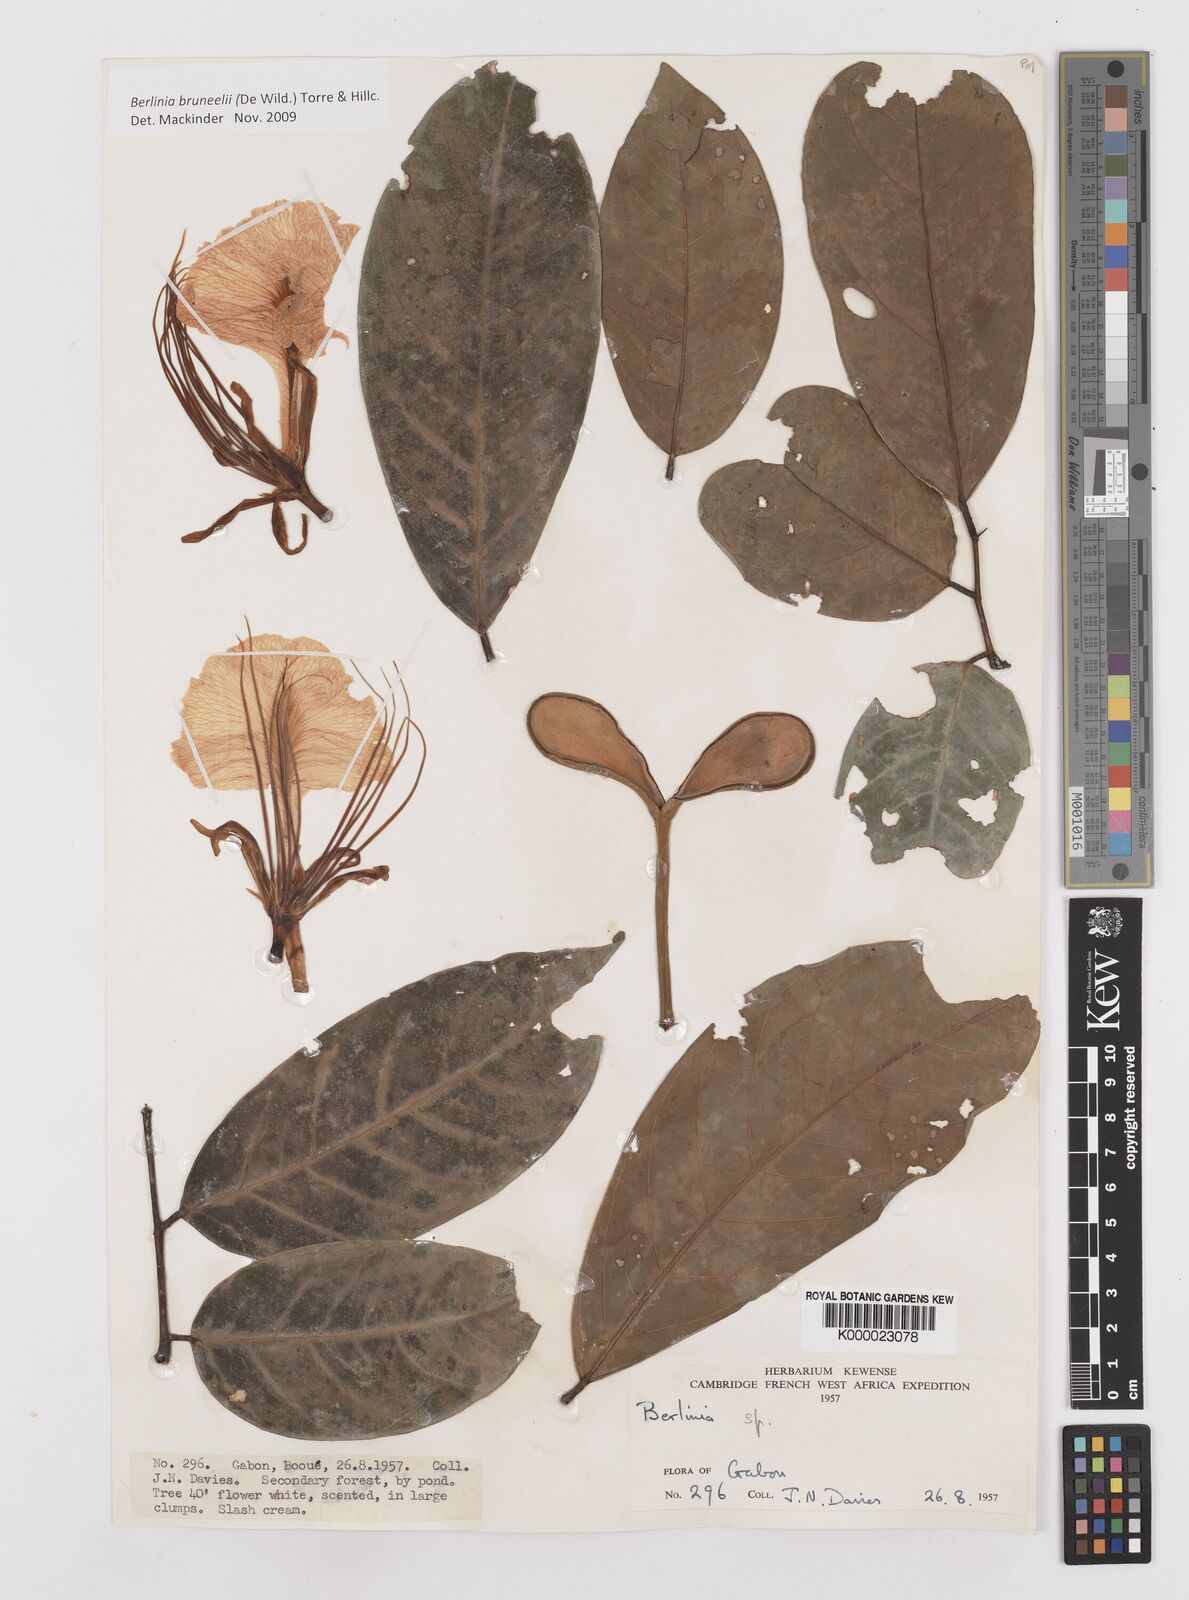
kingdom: Plantae
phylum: Tracheophyta
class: Magnoliopsida
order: Fabales
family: Fabaceae
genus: Berlinia
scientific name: Berlinia bruneelii
